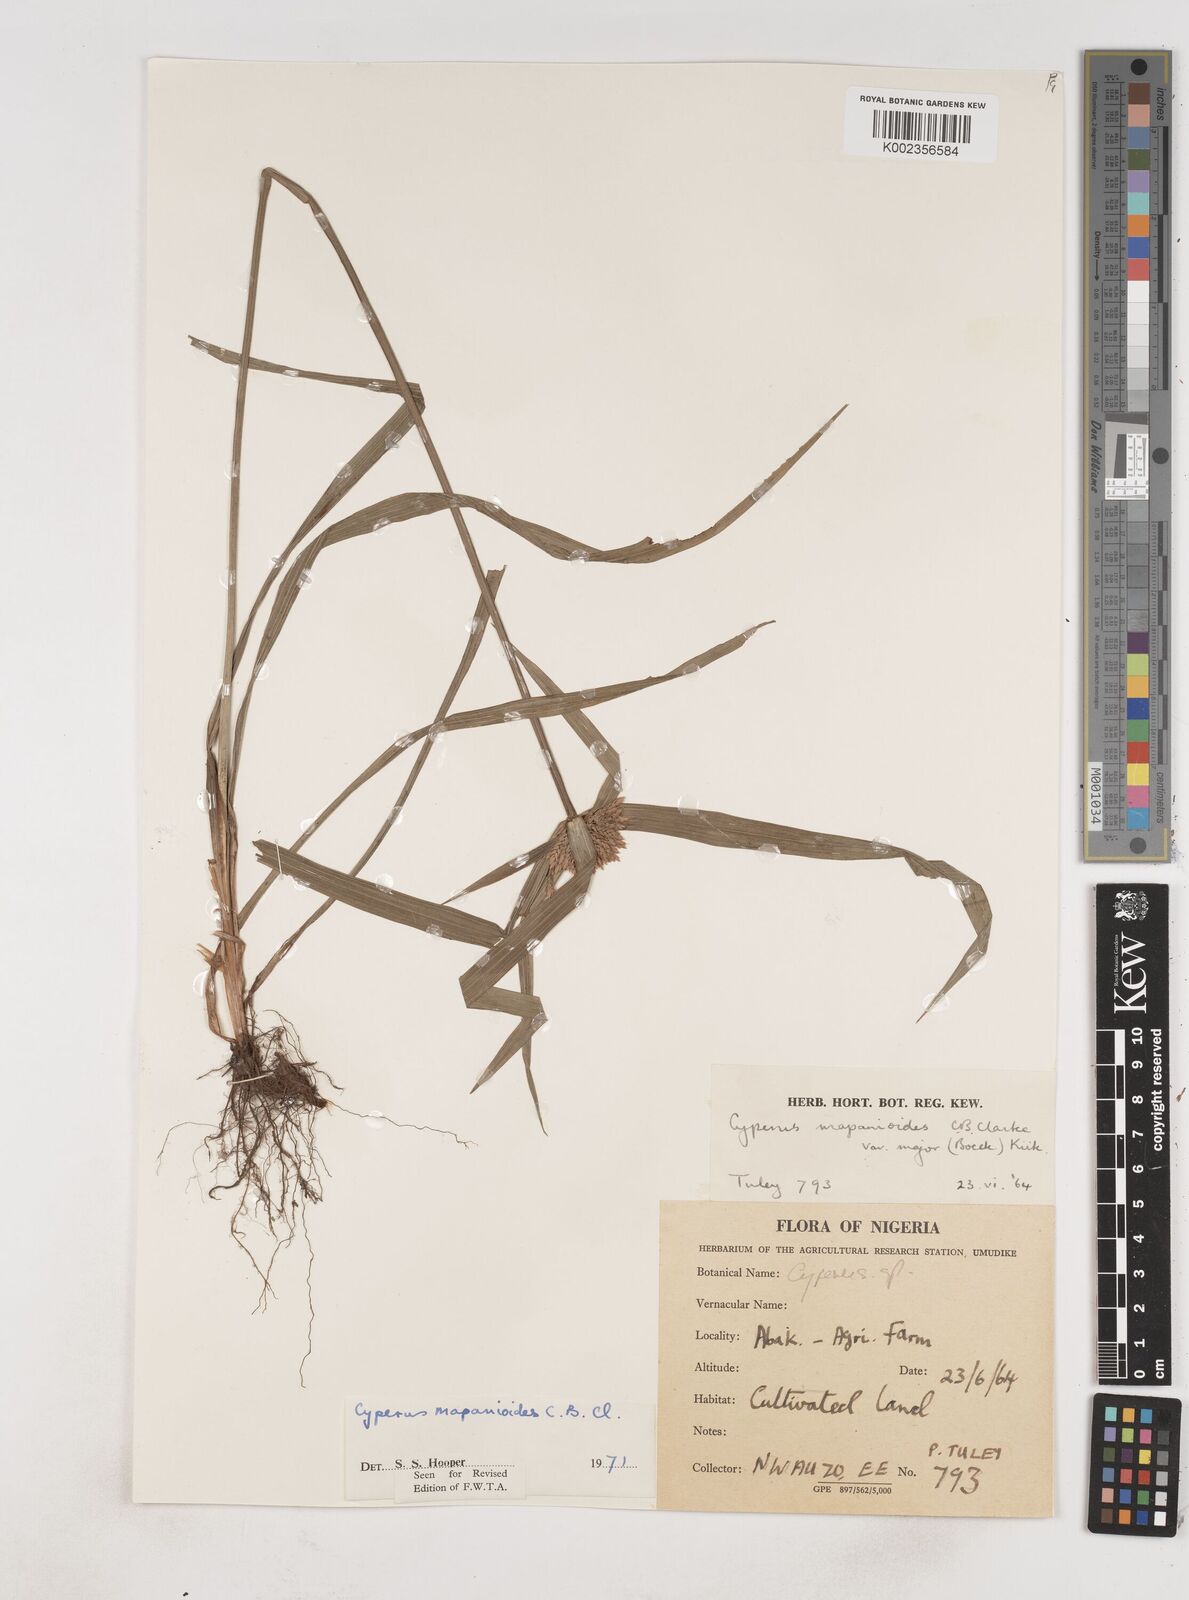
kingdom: Plantae
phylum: Tracheophyta
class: Liliopsida
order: Poales
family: Cyperaceae
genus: Cyperus
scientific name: Cyperus mapanioides
